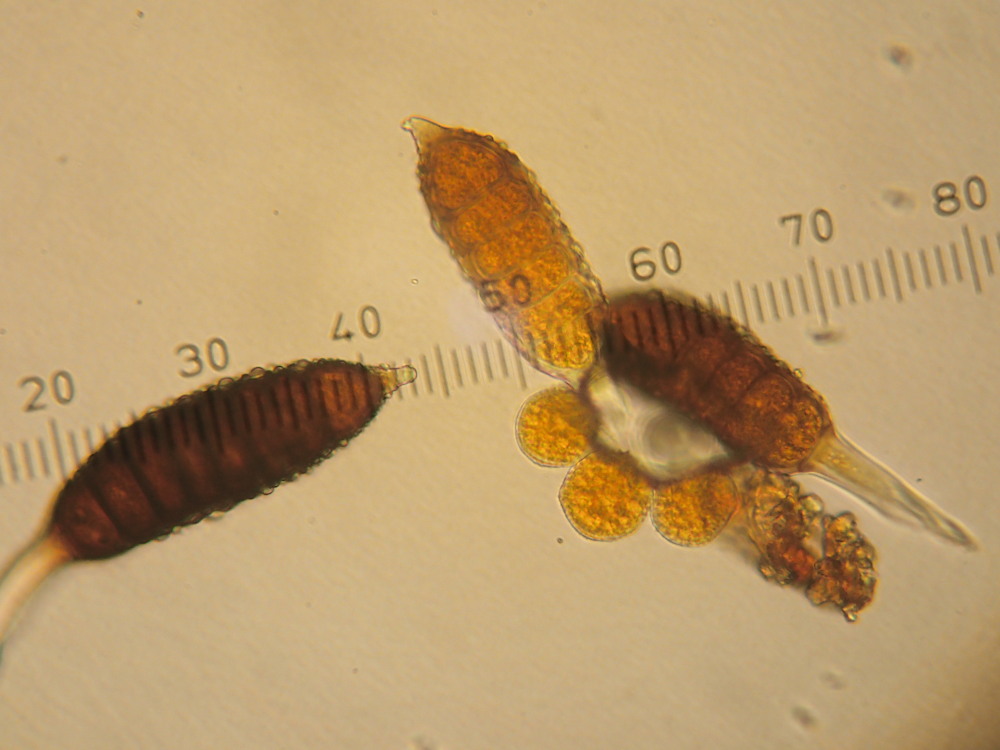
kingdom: Fungi
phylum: Basidiomycota
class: Pucciniomycetes
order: Pucciniales
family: Phragmidiaceae
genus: Phragmidium
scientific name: Phragmidium mucronatum
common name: rose-flercellerust
